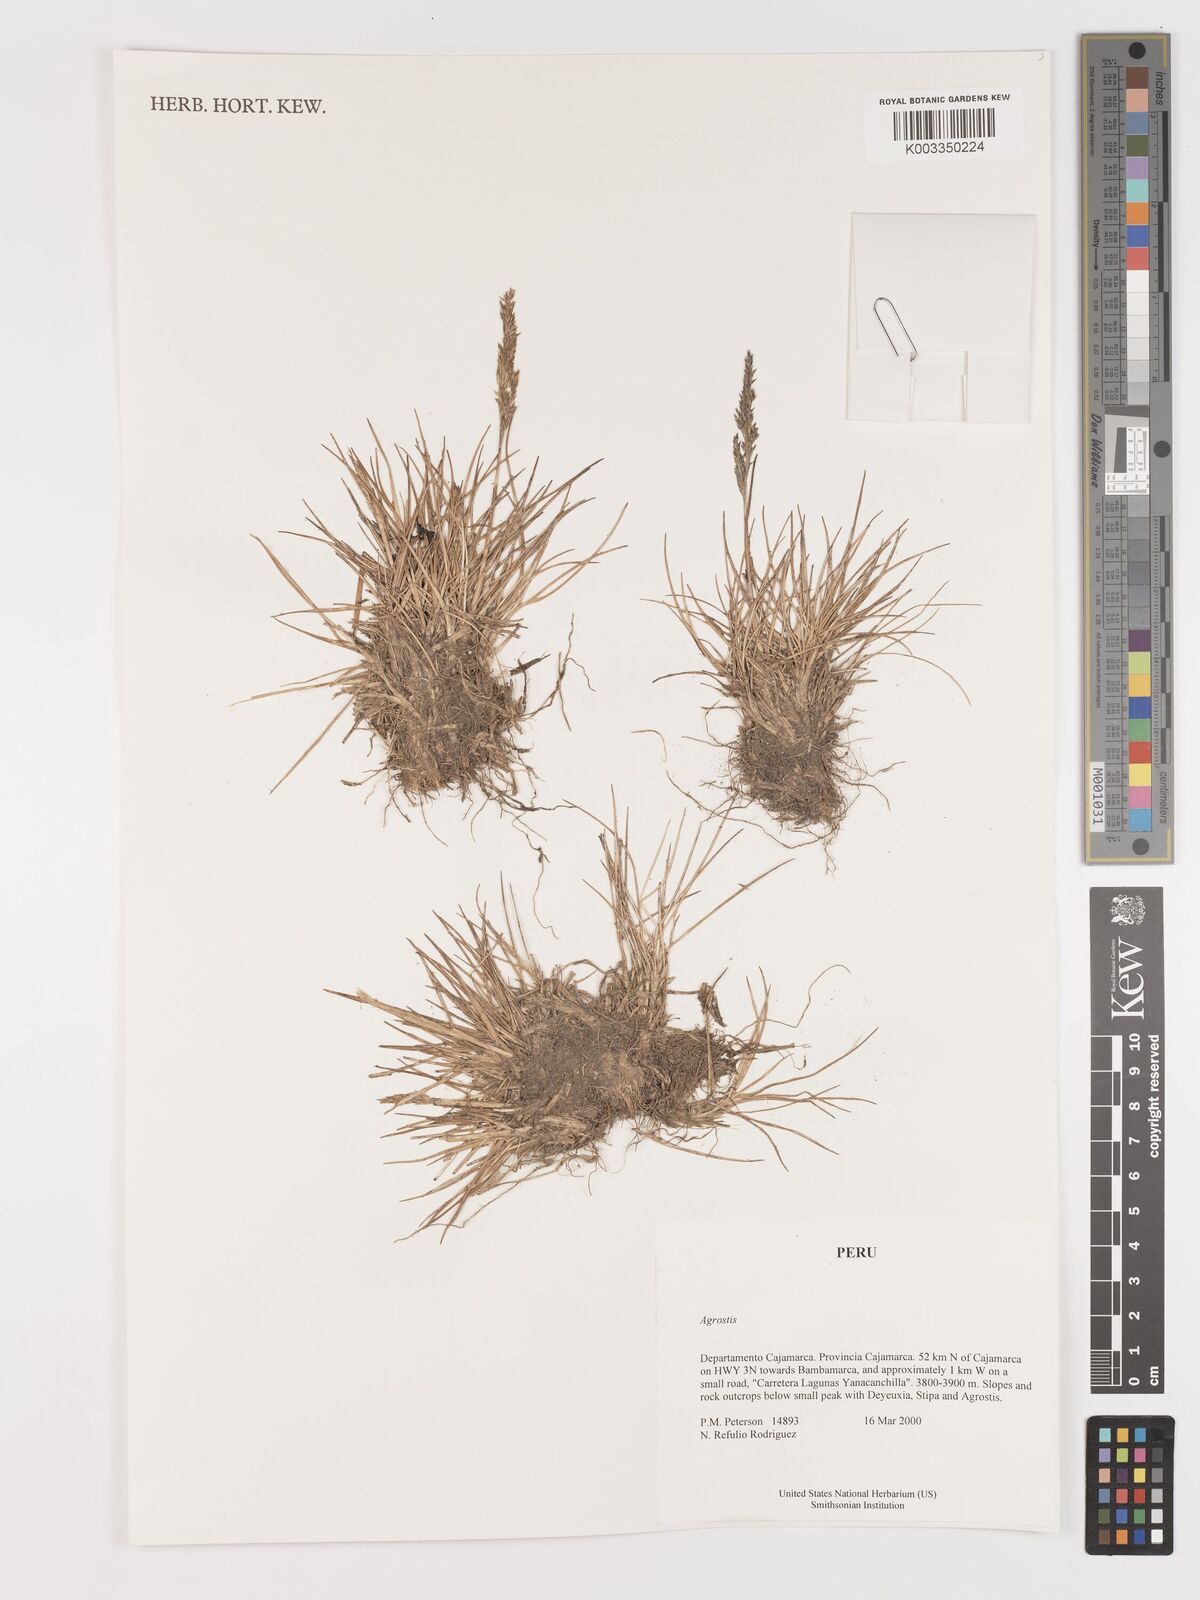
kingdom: Plantae
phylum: Tracheophyta
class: Liliopsida
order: Poales
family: Poaceae
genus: Agrostis
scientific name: Agrostis
